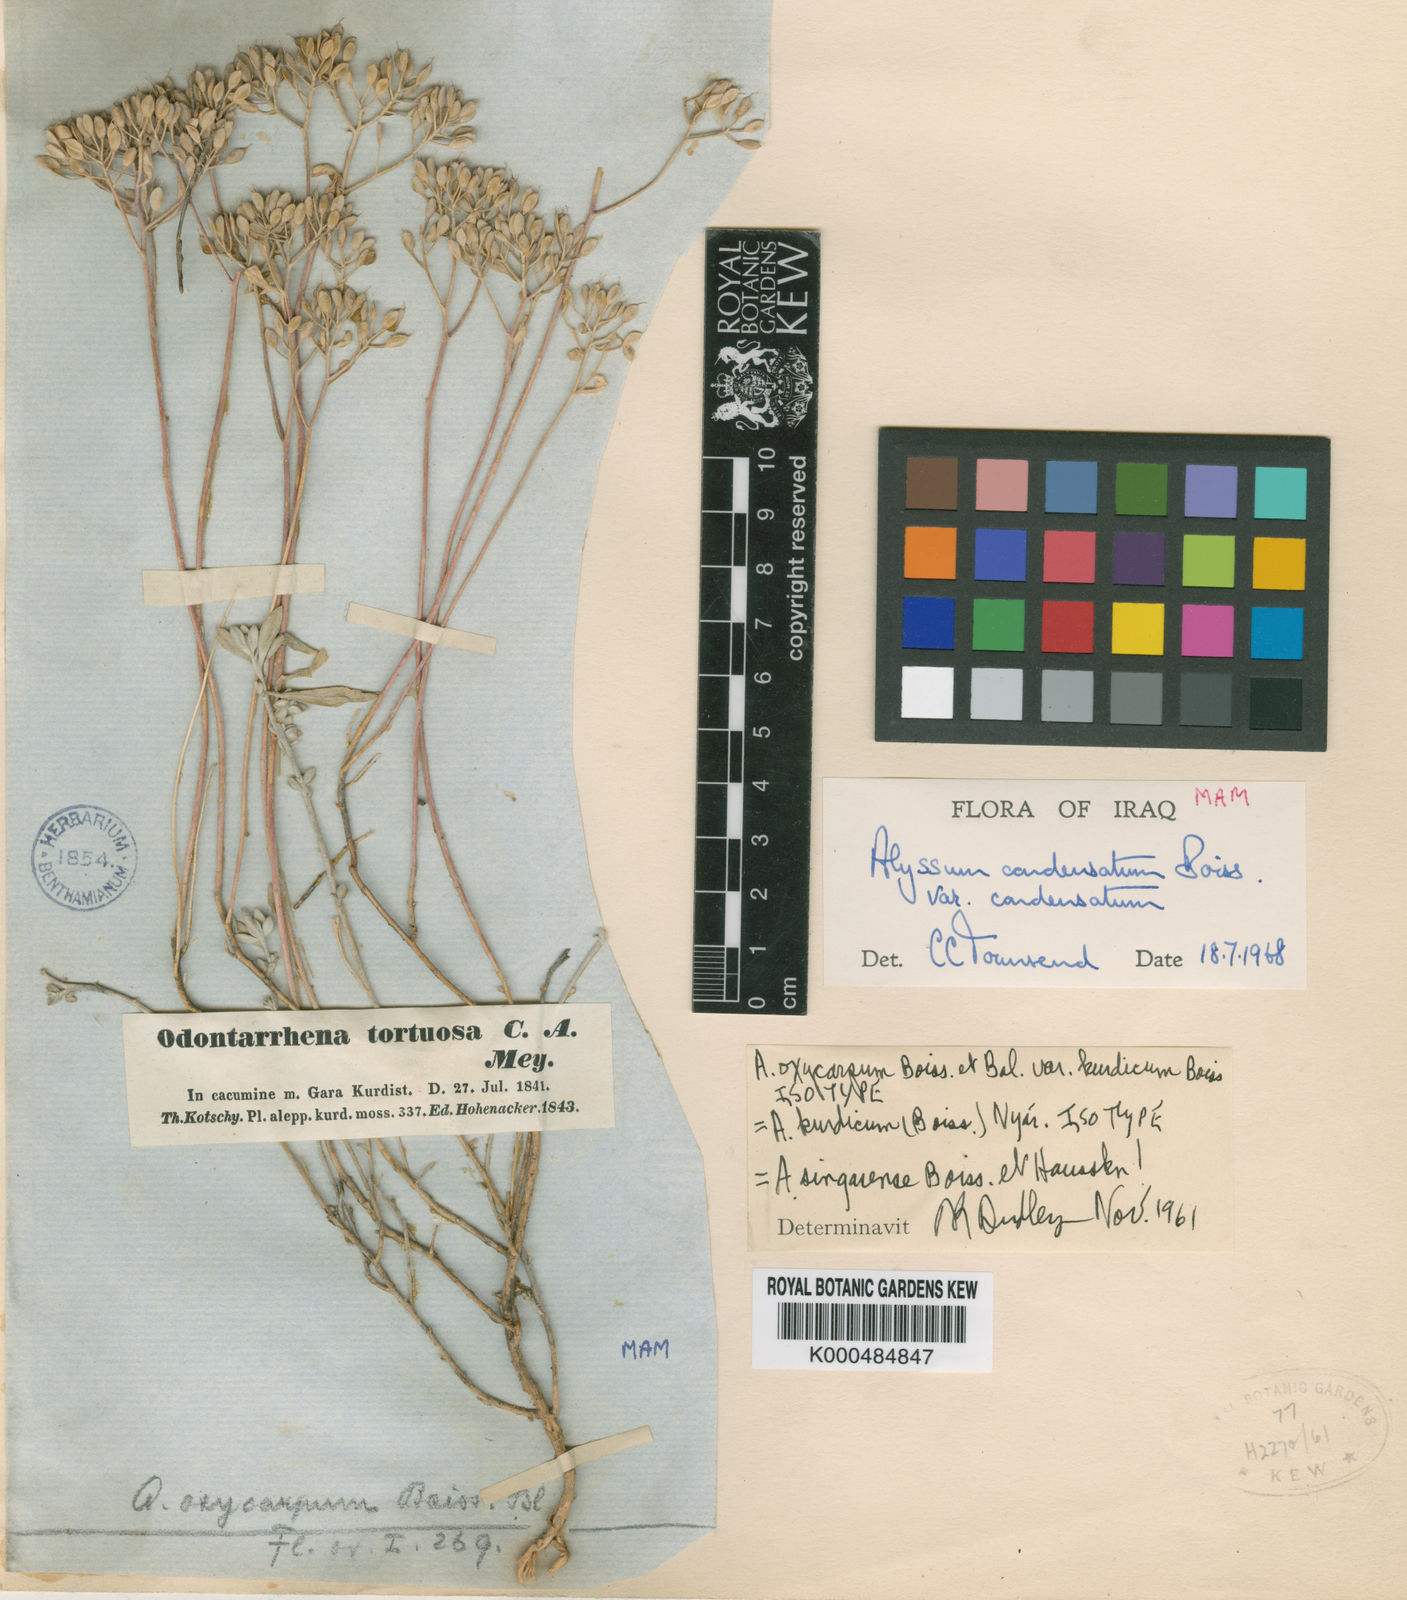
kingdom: Plantae
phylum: Tracheophyta
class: Magnoliopsida
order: Brassicales
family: Brassicaceae
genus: Odontarrhena
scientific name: Odontarrhena
